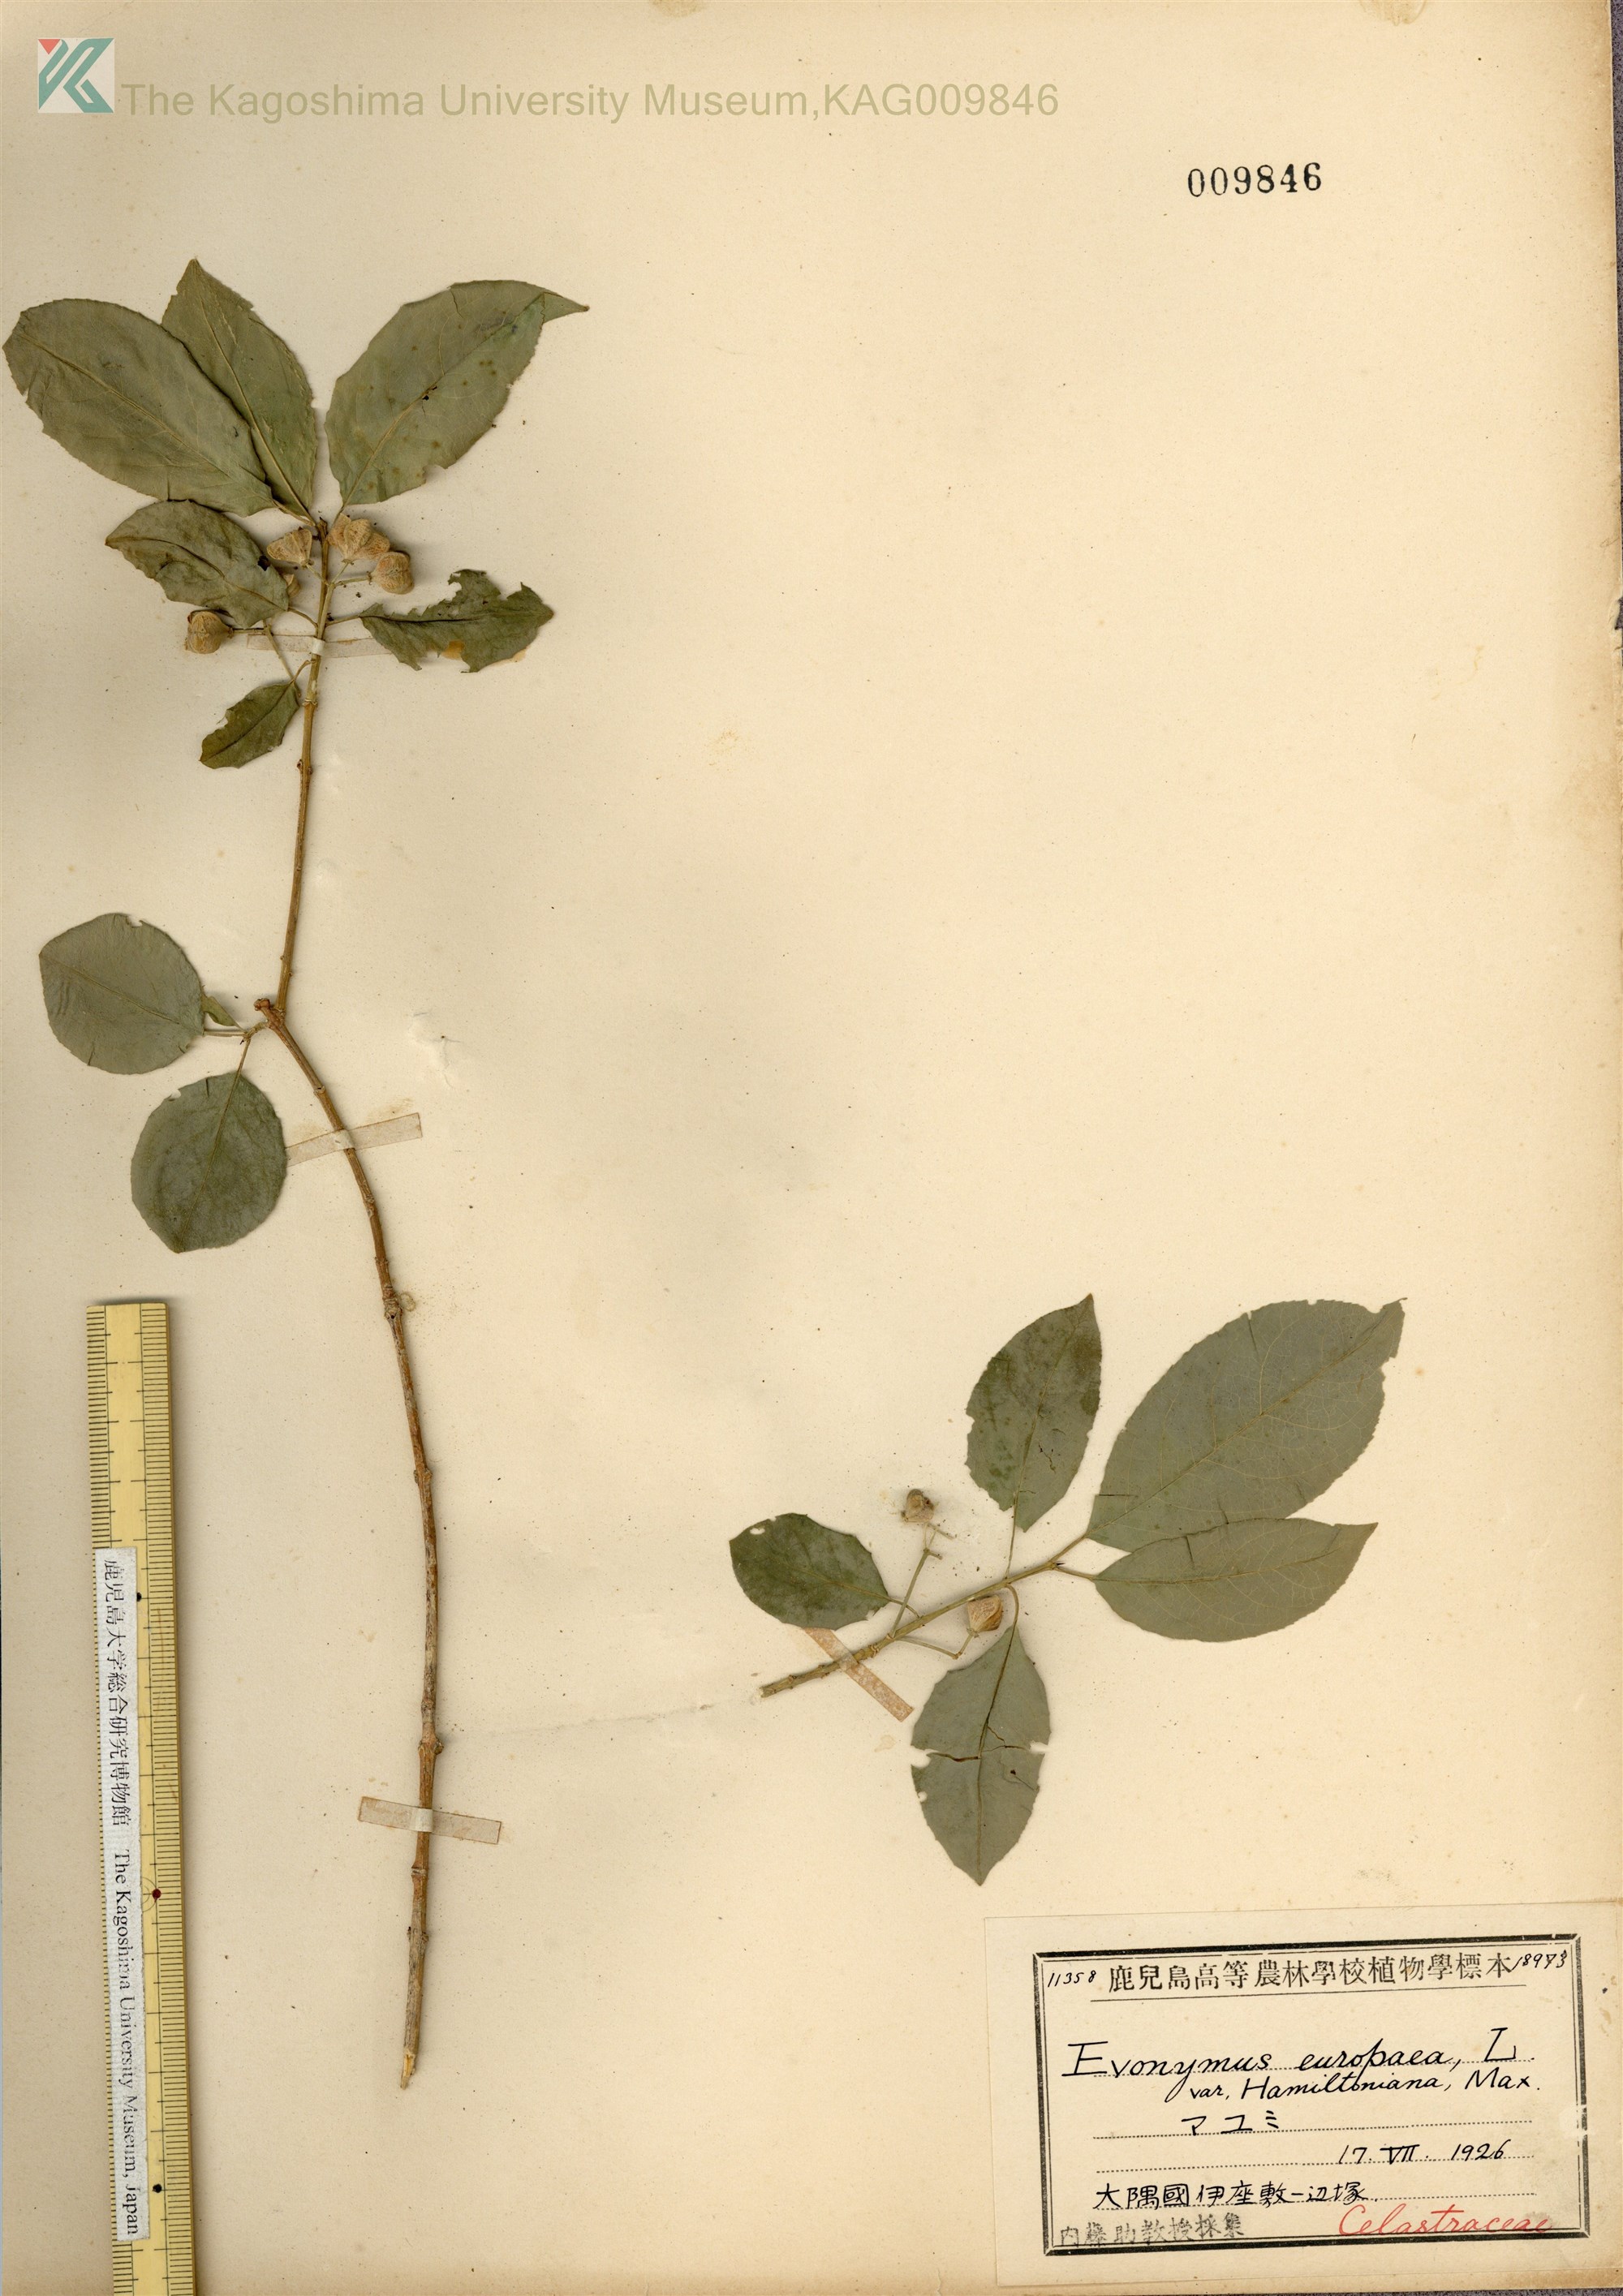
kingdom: Plantae
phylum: Tracheophyta
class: Magnoliopsida
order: Celastrales
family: Celastraceae
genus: Euonymus
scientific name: Euonymus hamiltonianus
